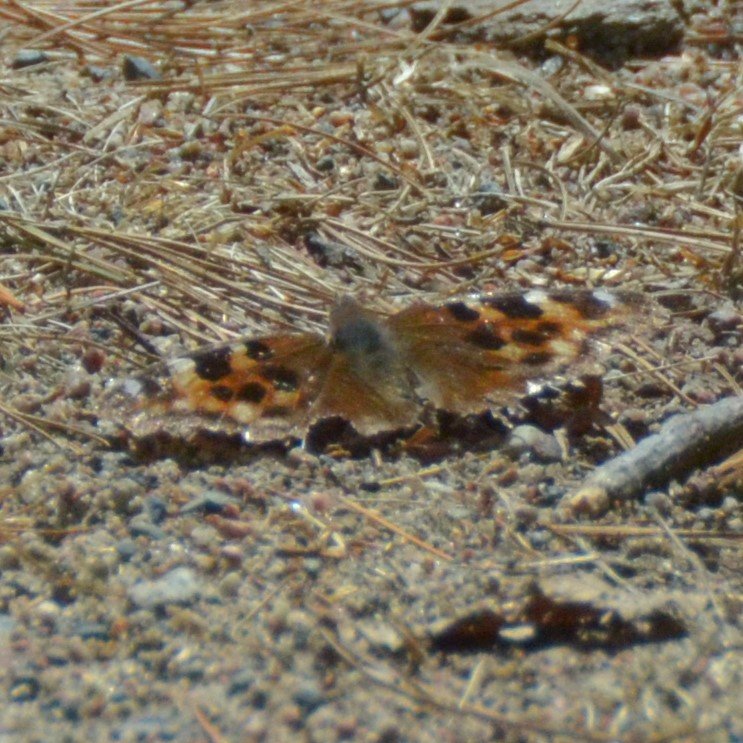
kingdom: Animalia
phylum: Arthropoda
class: Insecta
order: Lepidoptera
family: Nymphalidae
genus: Polygonia
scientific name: Polygonia vaualbum
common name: Compton Tortoiseshell
